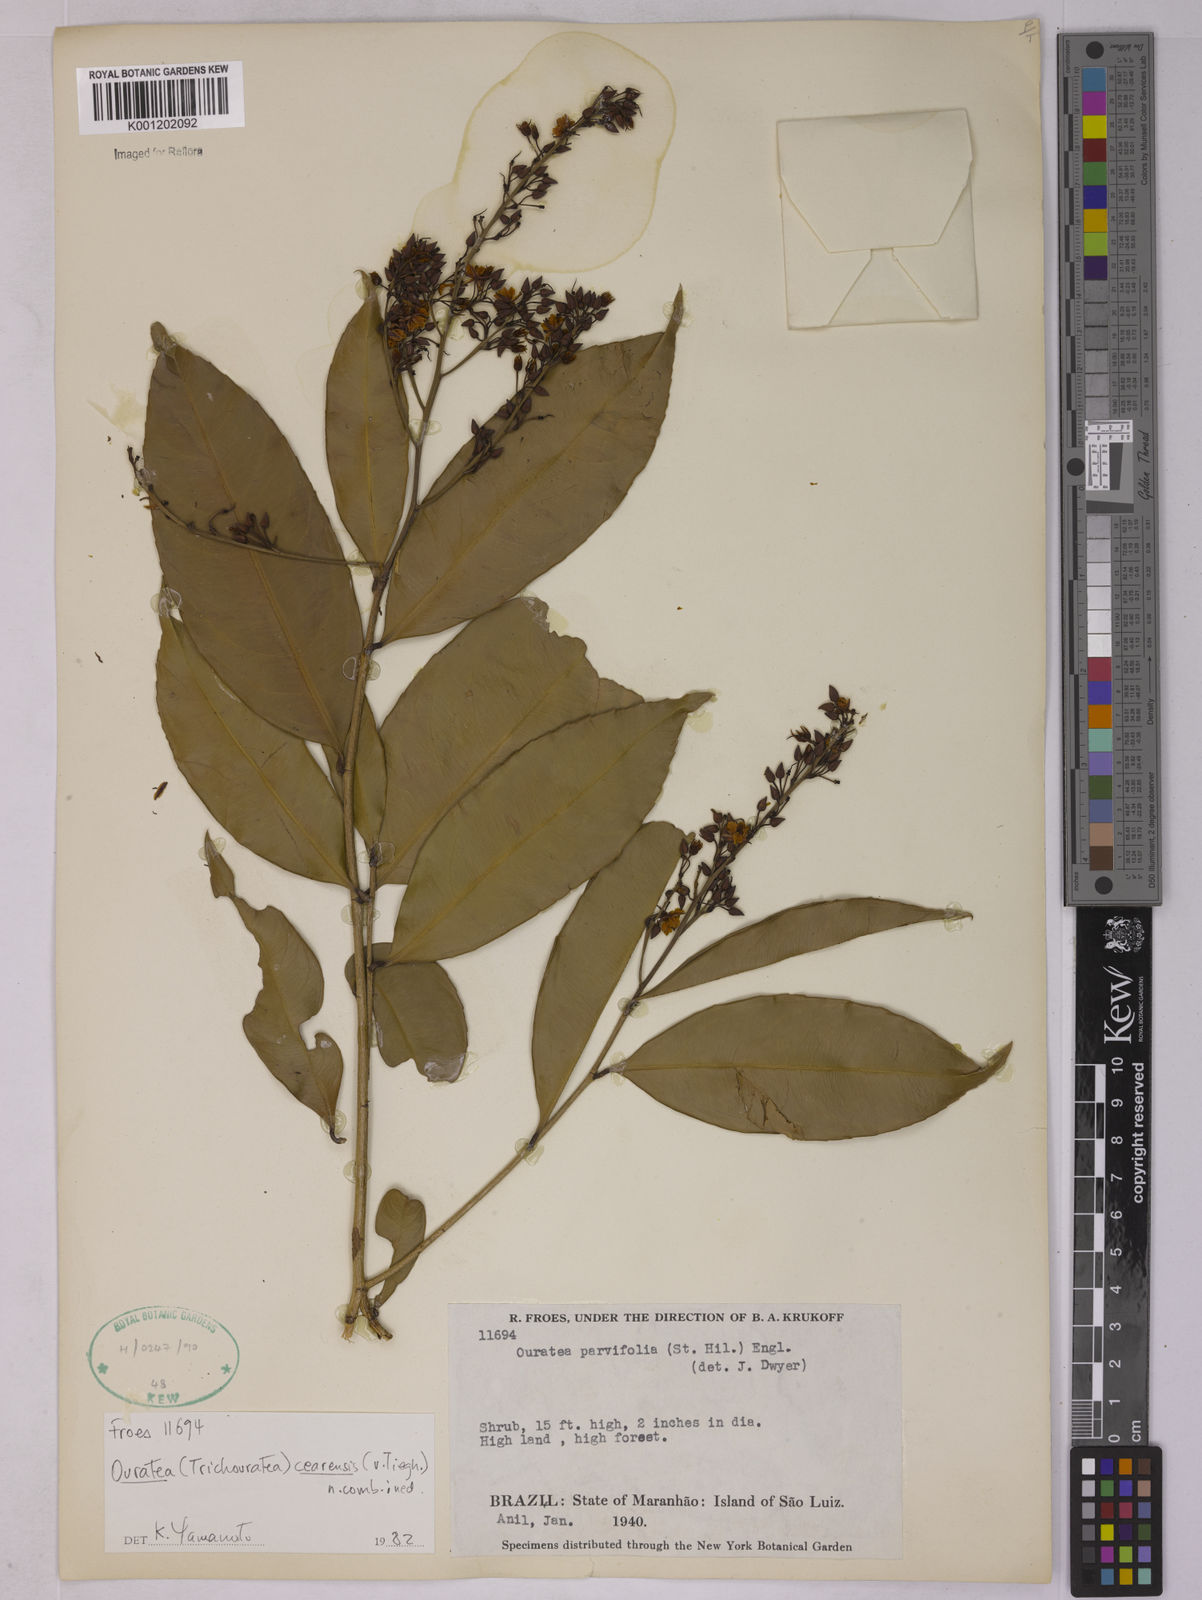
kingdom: Plantae
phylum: Tracheophyta
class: Magnoliopsida
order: Malpighiales
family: Ochnaceae
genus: Ouratea
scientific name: Ouratea cearensis
